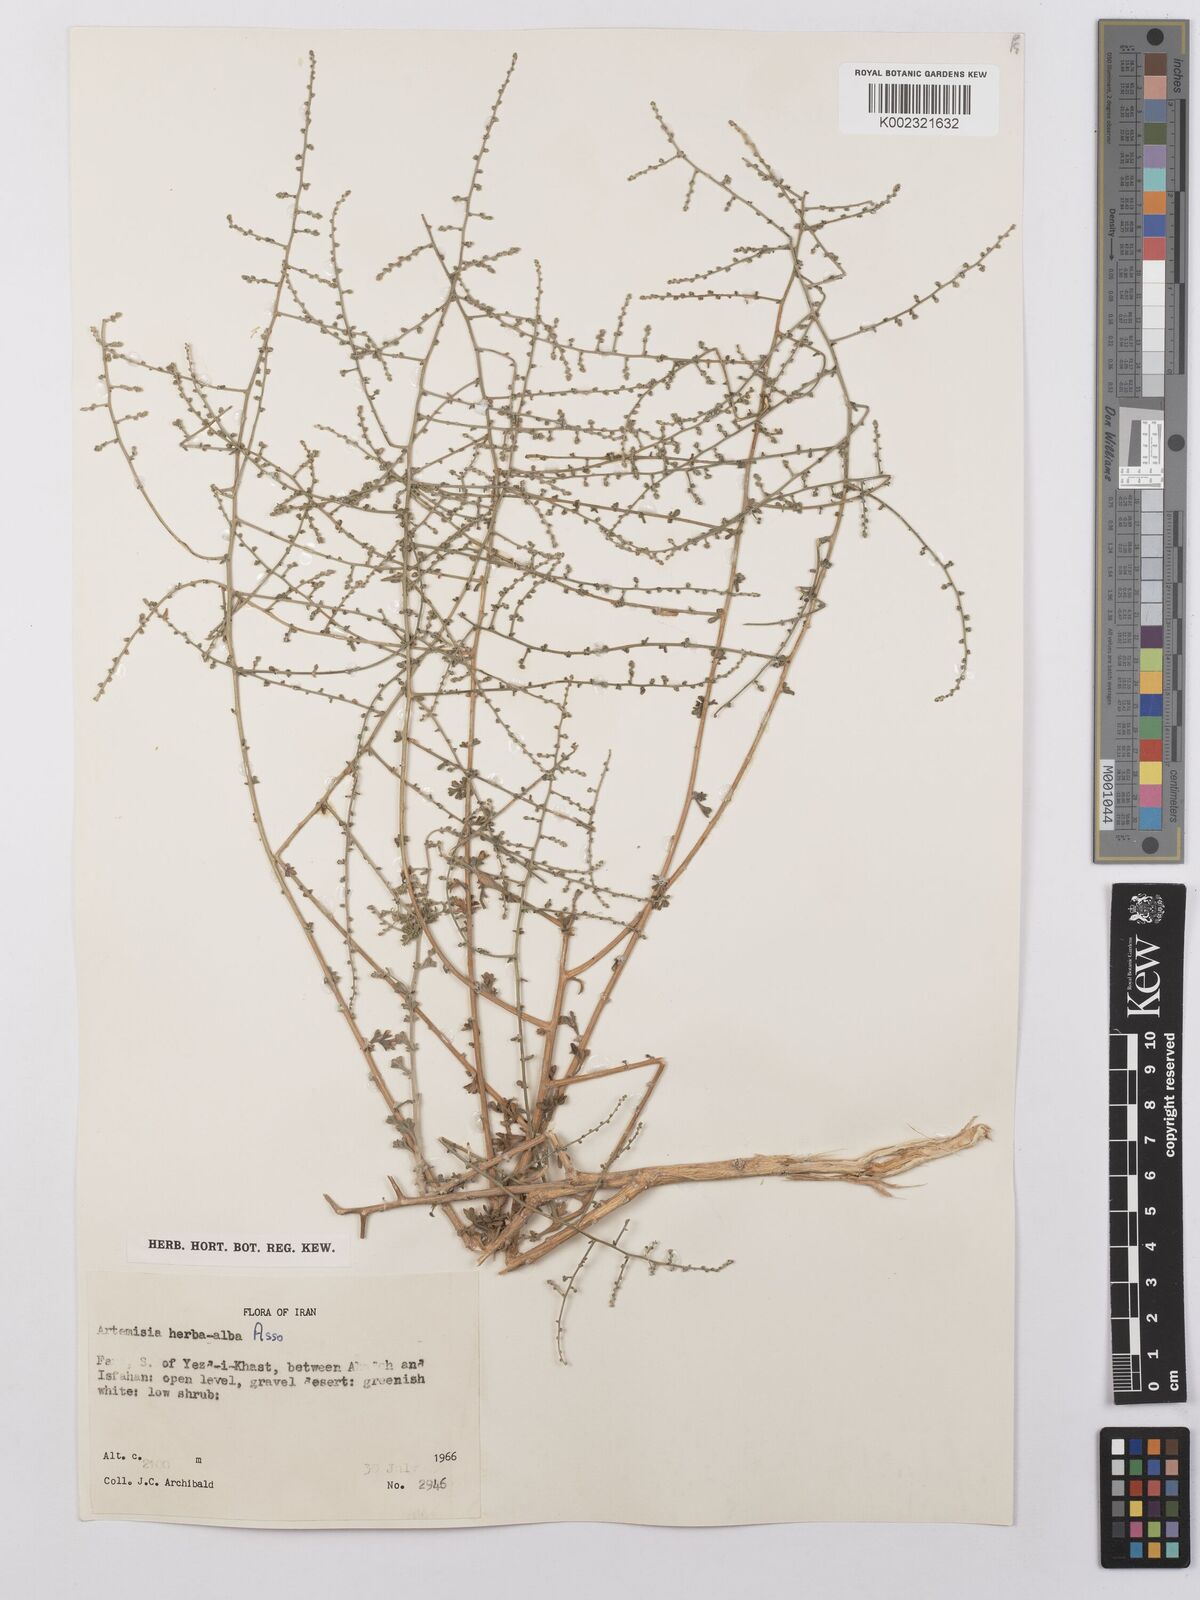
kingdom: Plantae
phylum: Tracheophyta
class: Magnoliopsida
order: Asterales
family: Asteraceae
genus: Artemisia
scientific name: Artemisia herba-alba
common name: White wormwood
